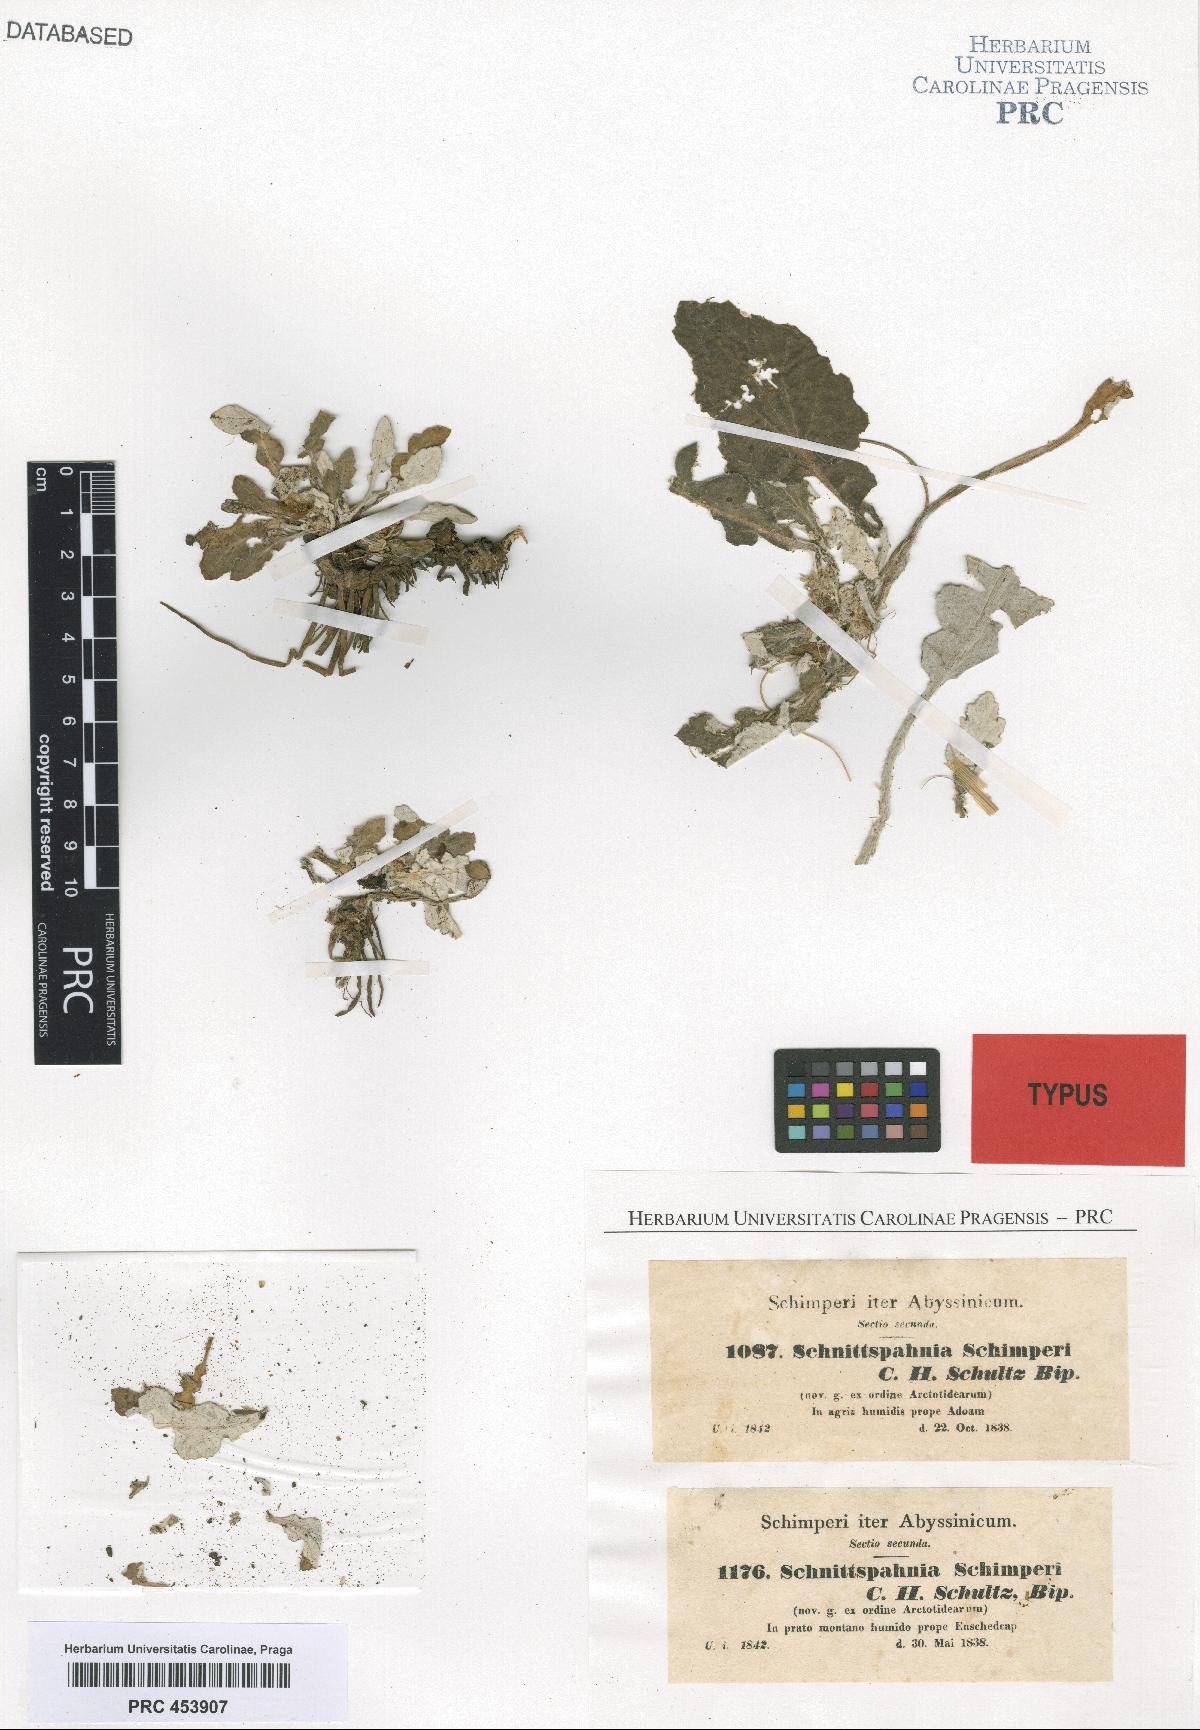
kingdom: Plantae
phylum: Tracheophyta
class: Magnoliopsida
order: Asterales
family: Asteraceae
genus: Haplocarpha
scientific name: Haplocarpha schimperi
